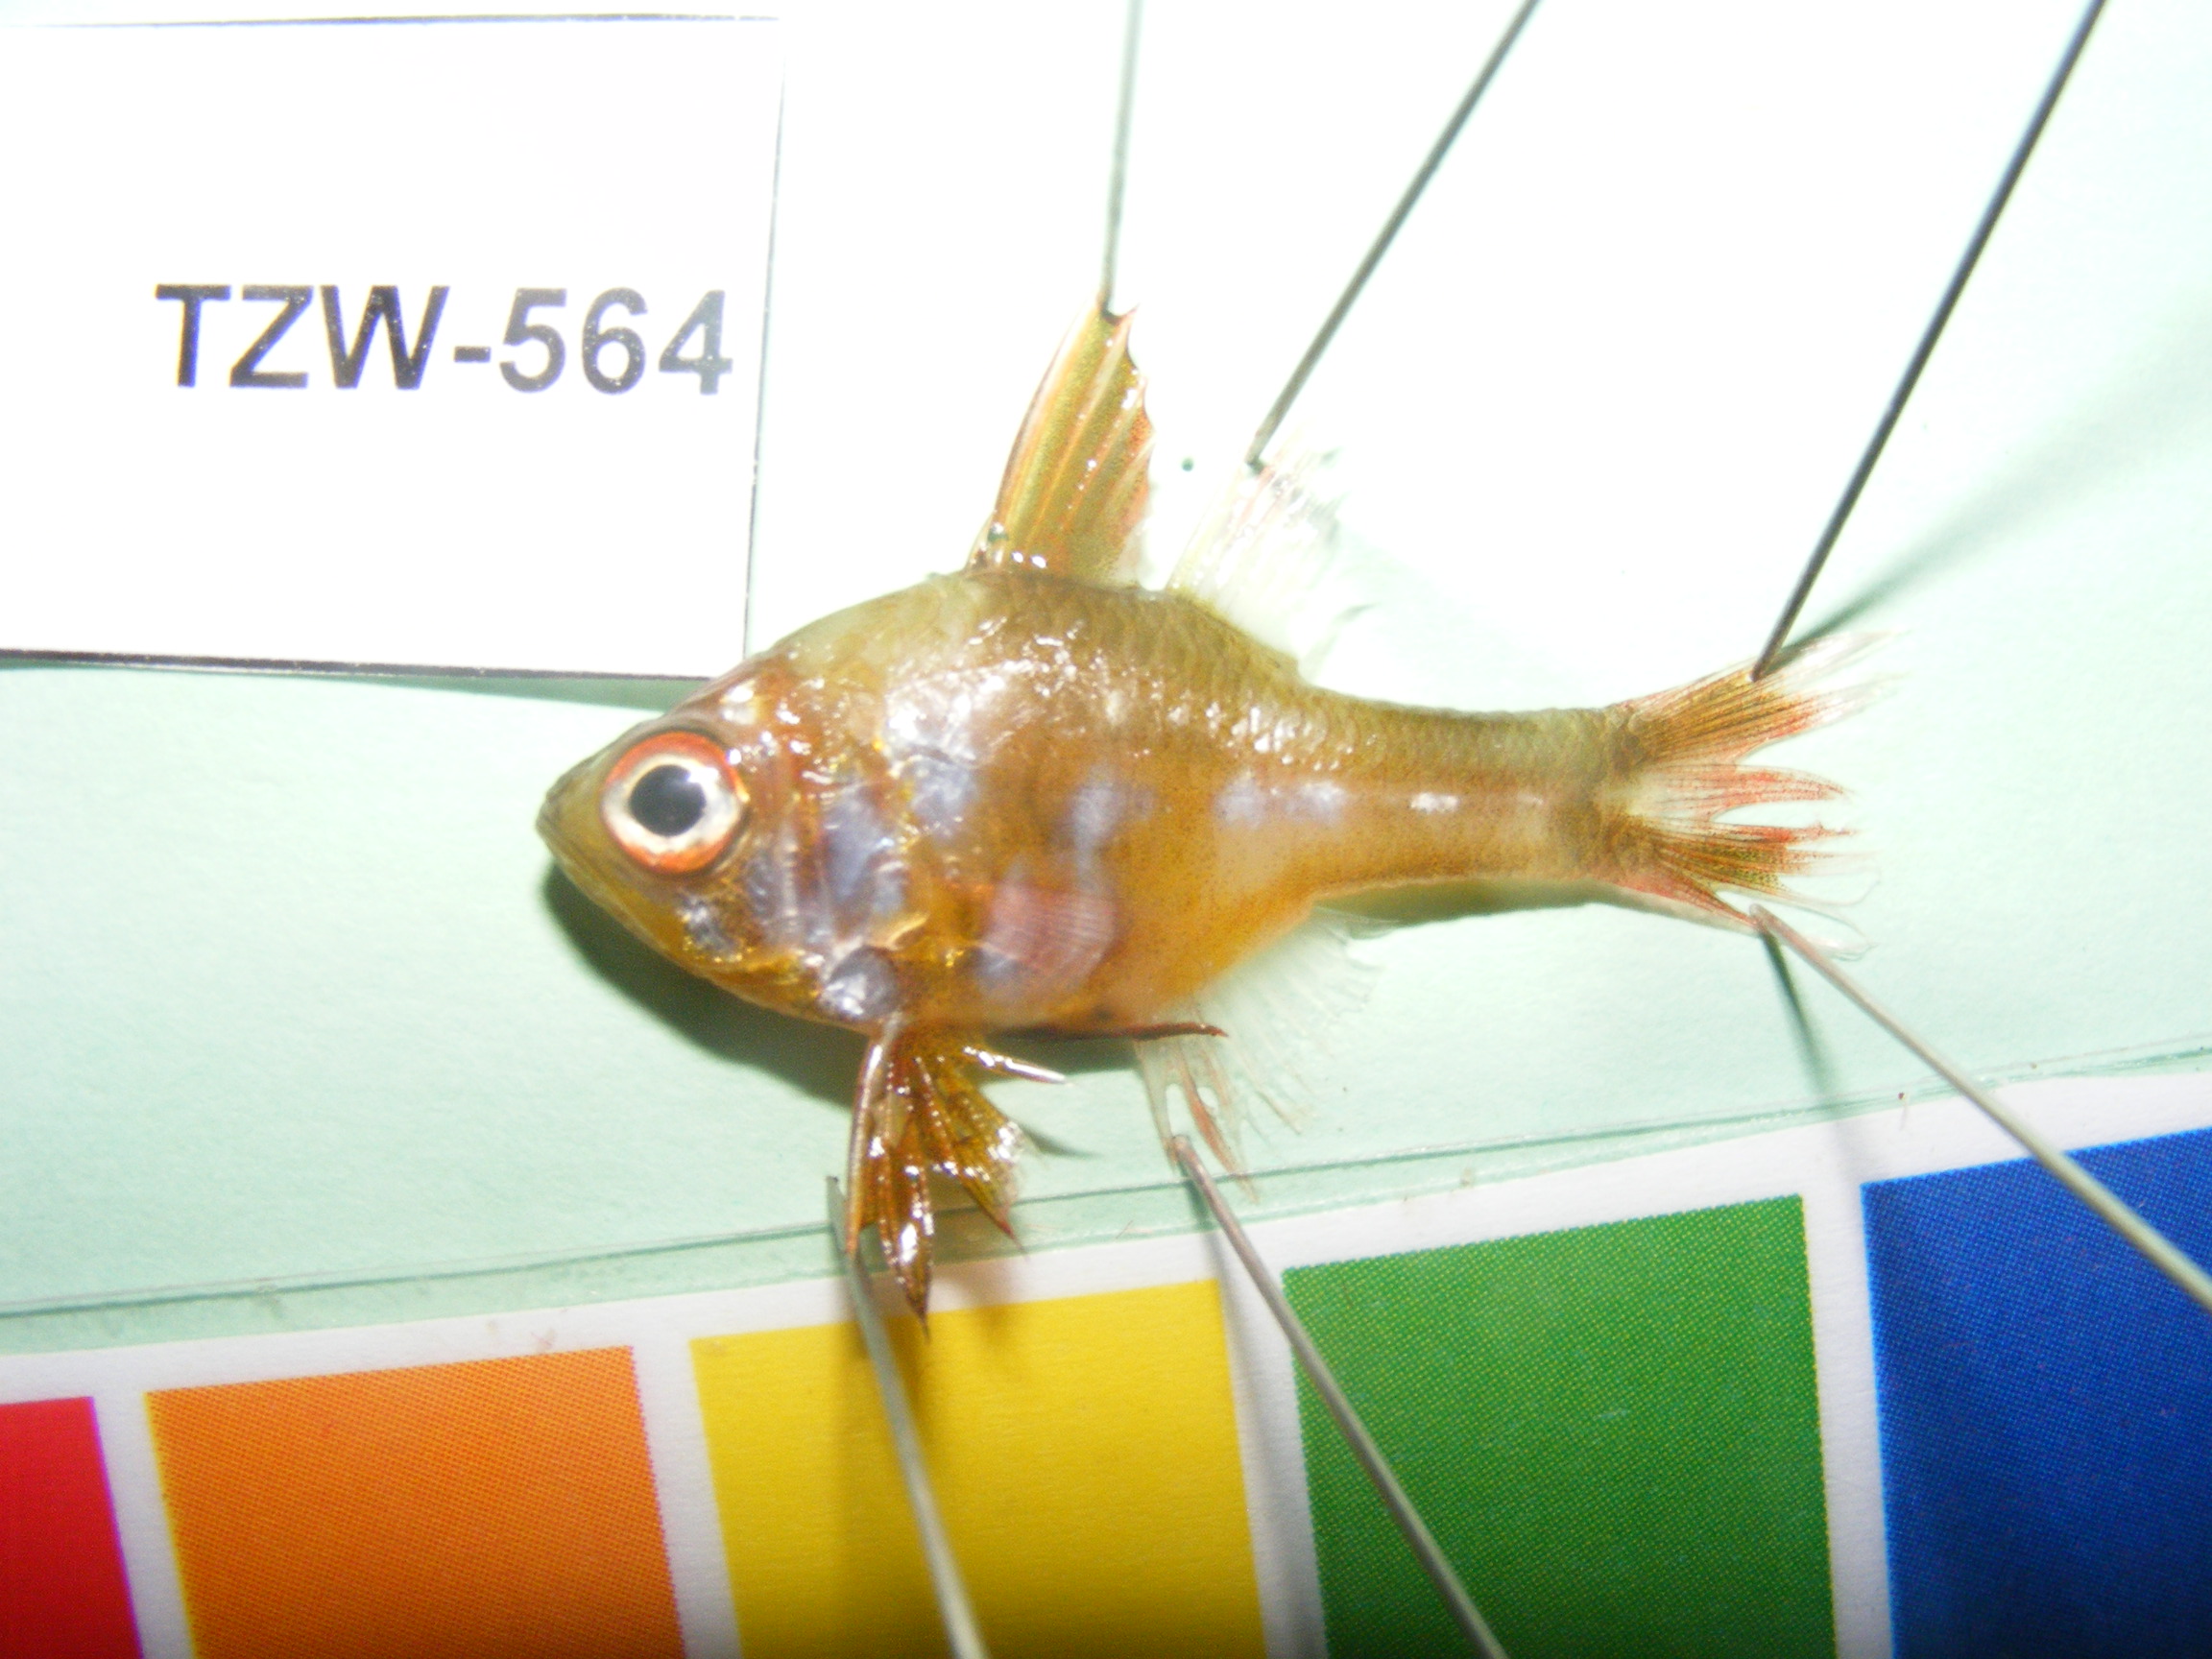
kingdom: Animalia
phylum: Chordata
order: Perciformes
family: Apogonidae
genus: Ostorhinchus
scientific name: Ostorhinchus nigripes
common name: Blackfoot cardinal
